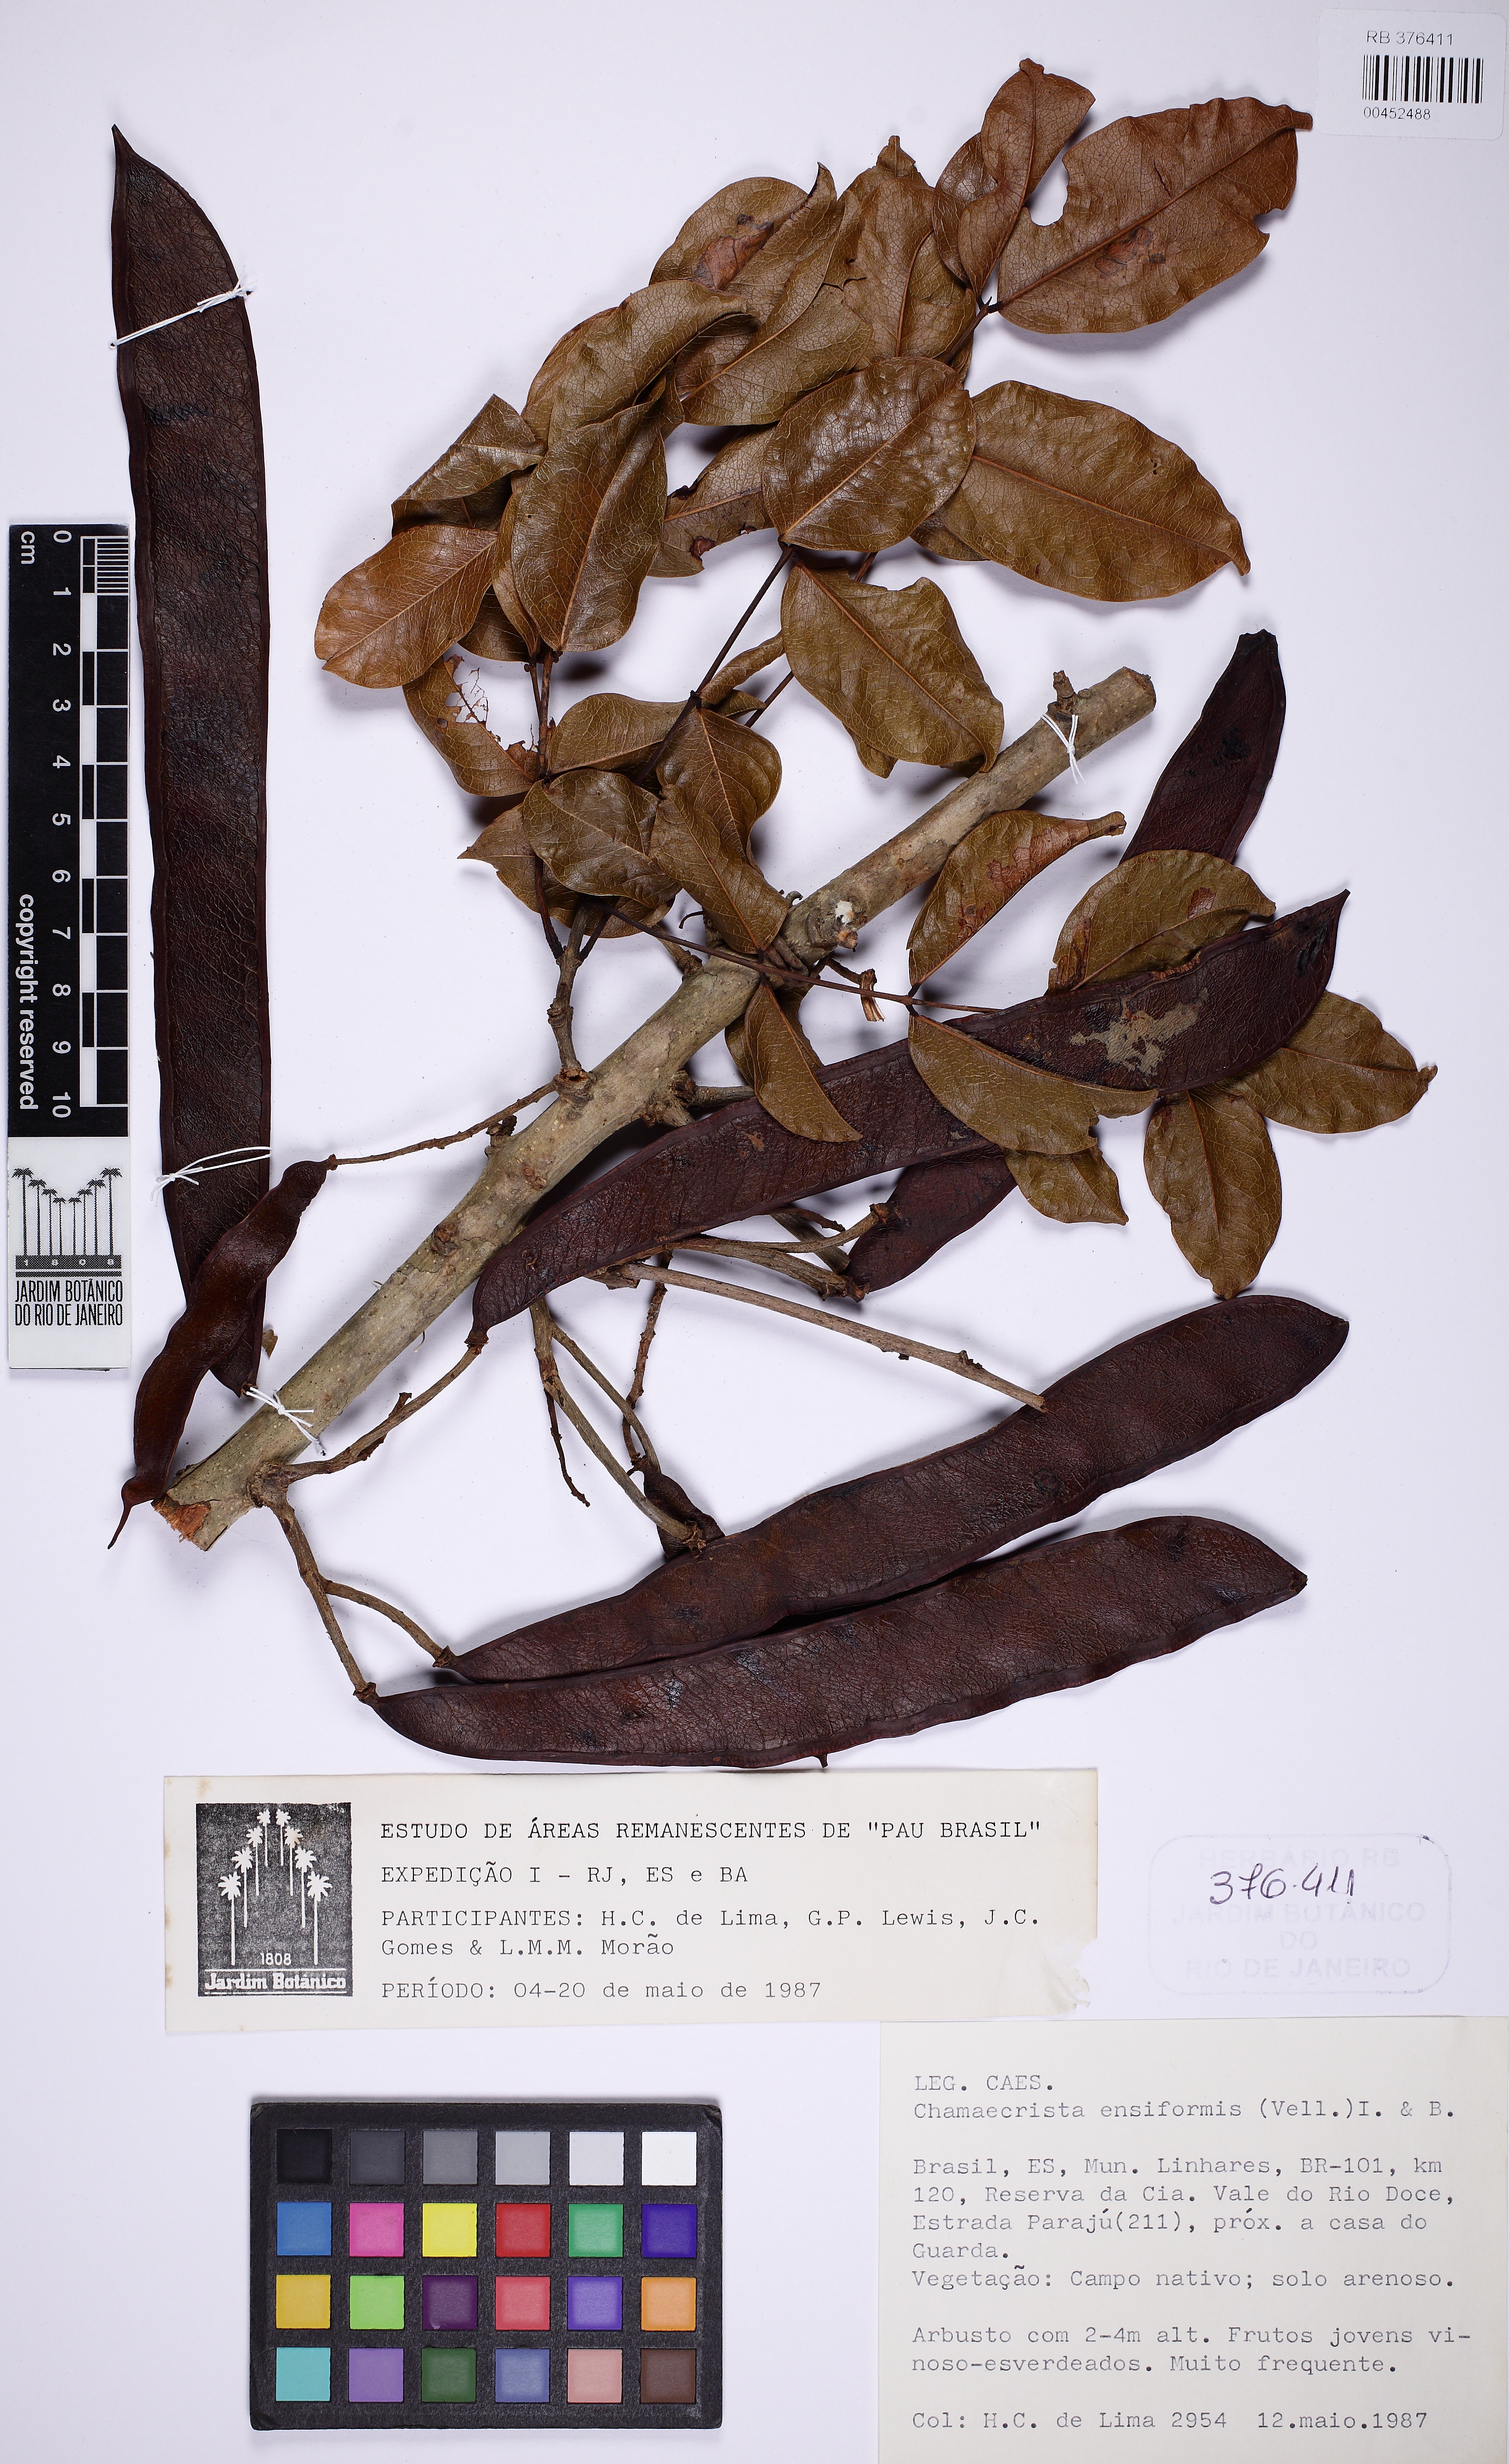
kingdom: Plantae
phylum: Tracheophyta
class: Magnoliopsida
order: Fabales
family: Fabaceae
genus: Chamaecrista
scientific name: Chamaecrista ensiformis
